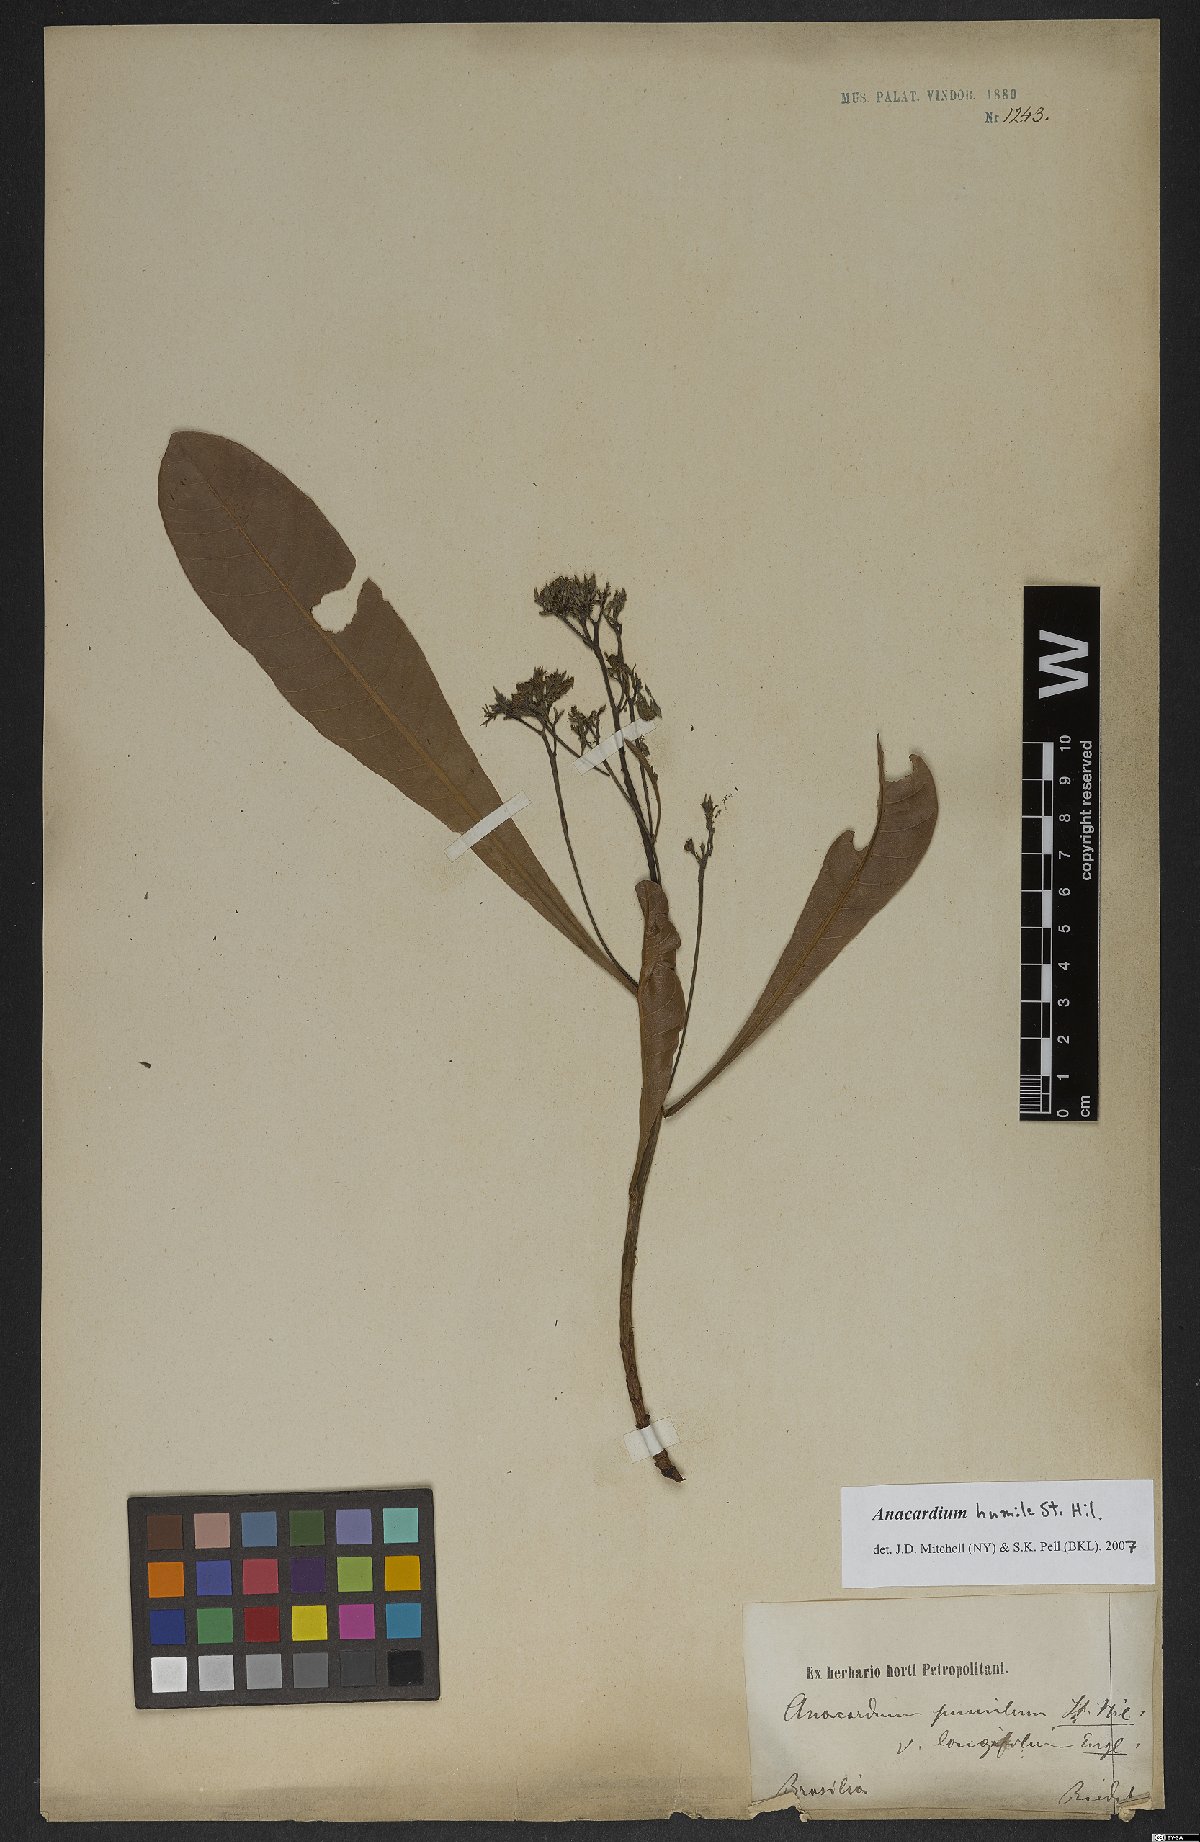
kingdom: Plantae
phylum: Tracheophyta
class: Magnoliopsida
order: Sapindales
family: Anacardiaceae
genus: Anacardium
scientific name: Anacardium humile
